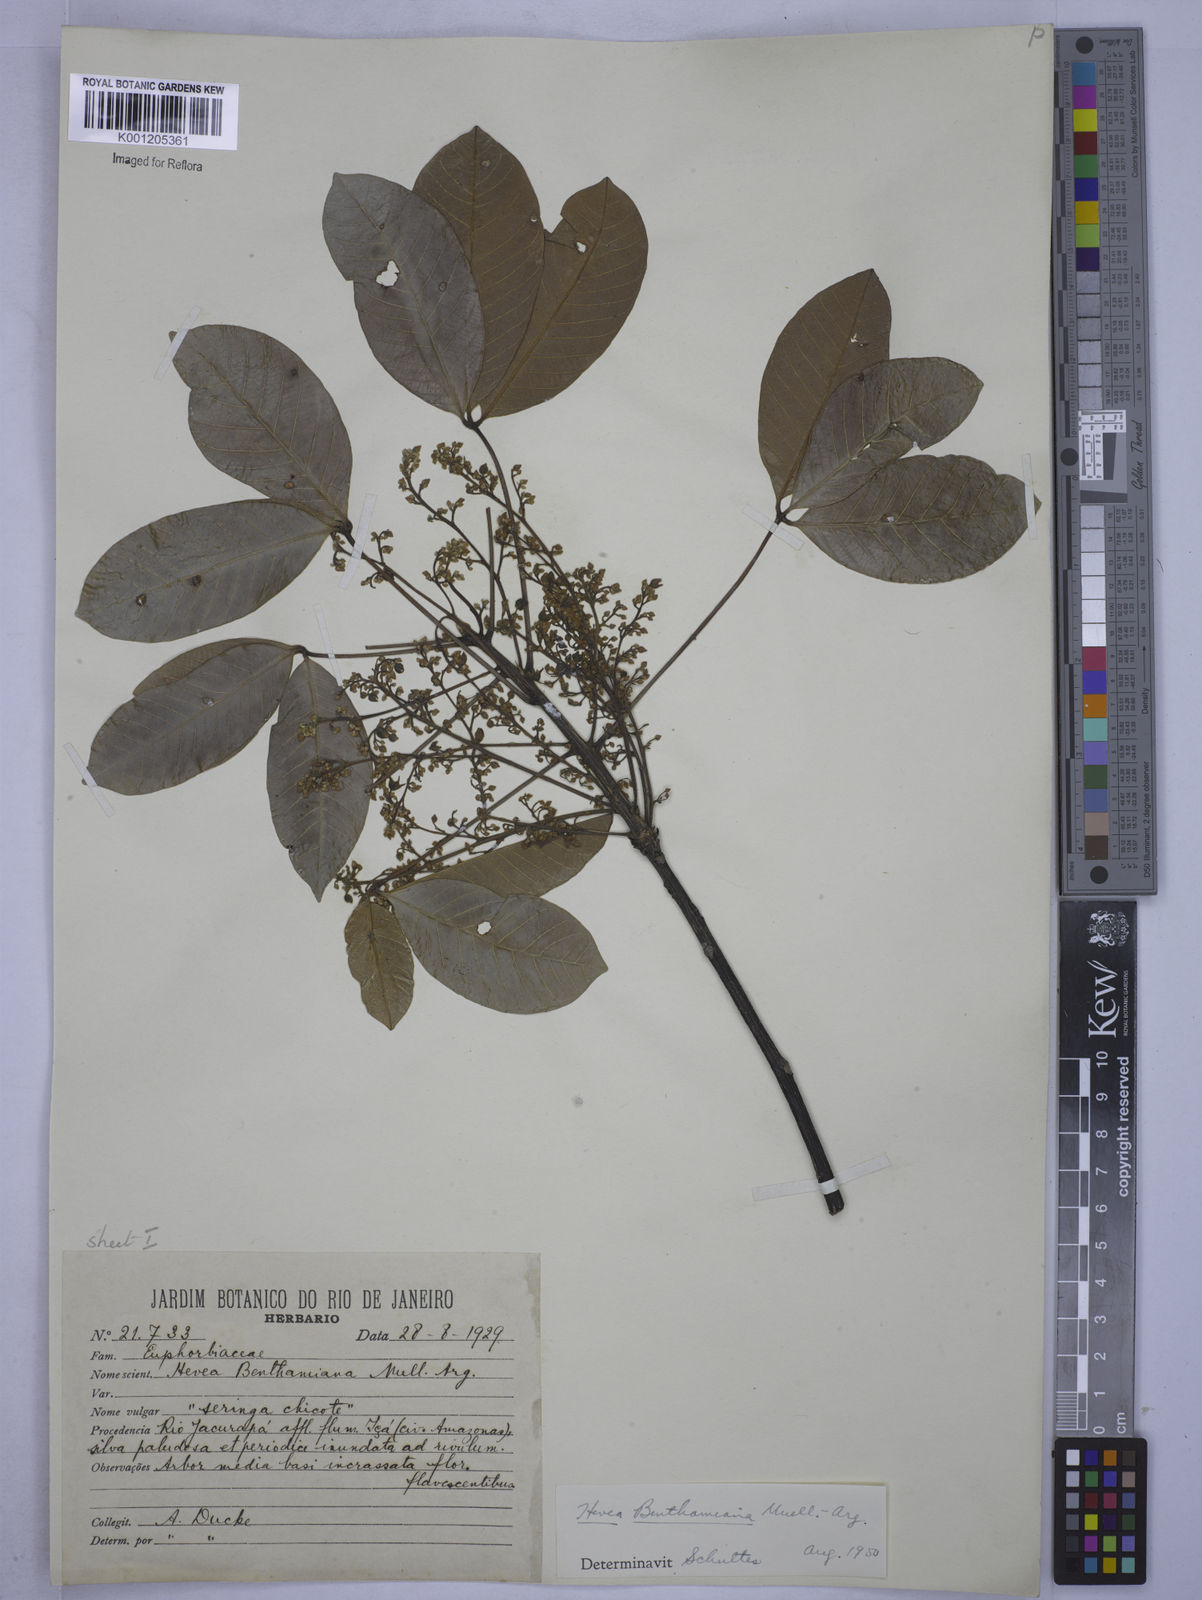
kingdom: Plantae
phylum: Tracheophyta
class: Magnoliopsida
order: Malpighiales
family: Euphorbiaceae
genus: Hevea
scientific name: Hevea
